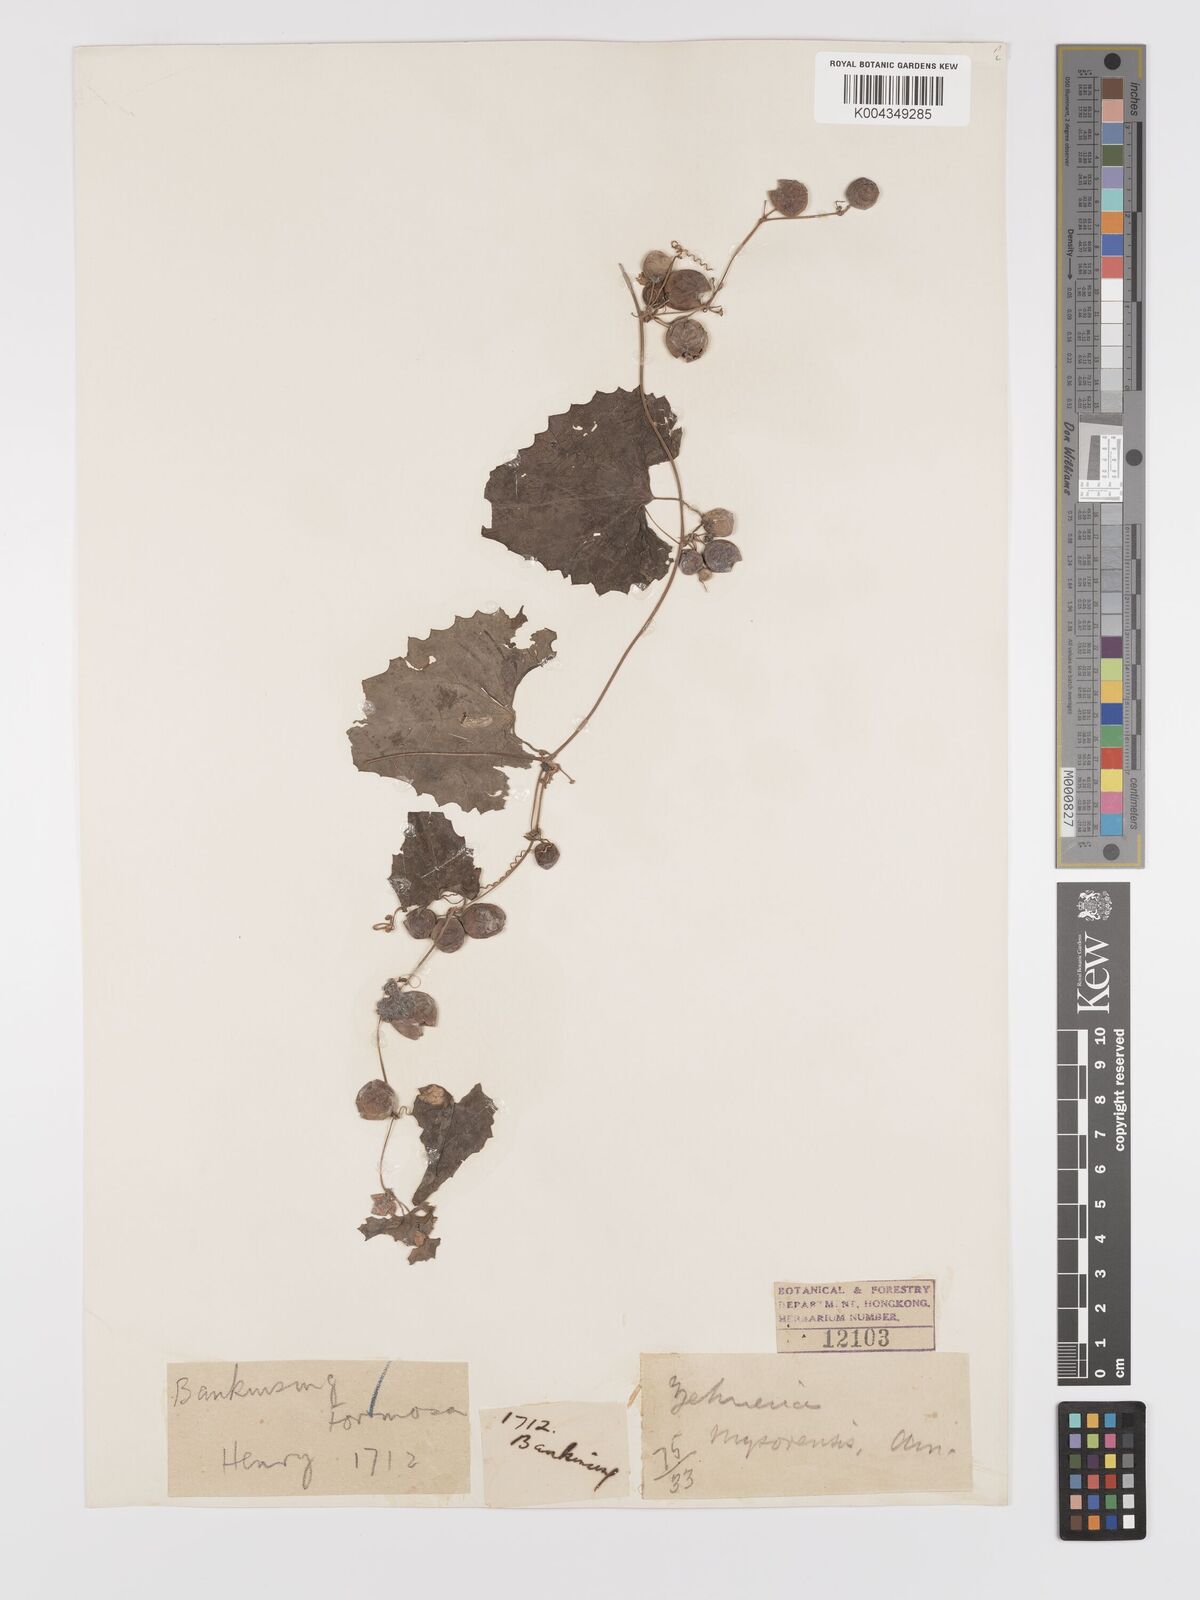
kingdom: Plantae
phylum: Tracheophyta
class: Magnoliopsida
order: Cucurbitales
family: Cucurbitaceae
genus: Zehneria
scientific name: Zehneria mucronata
